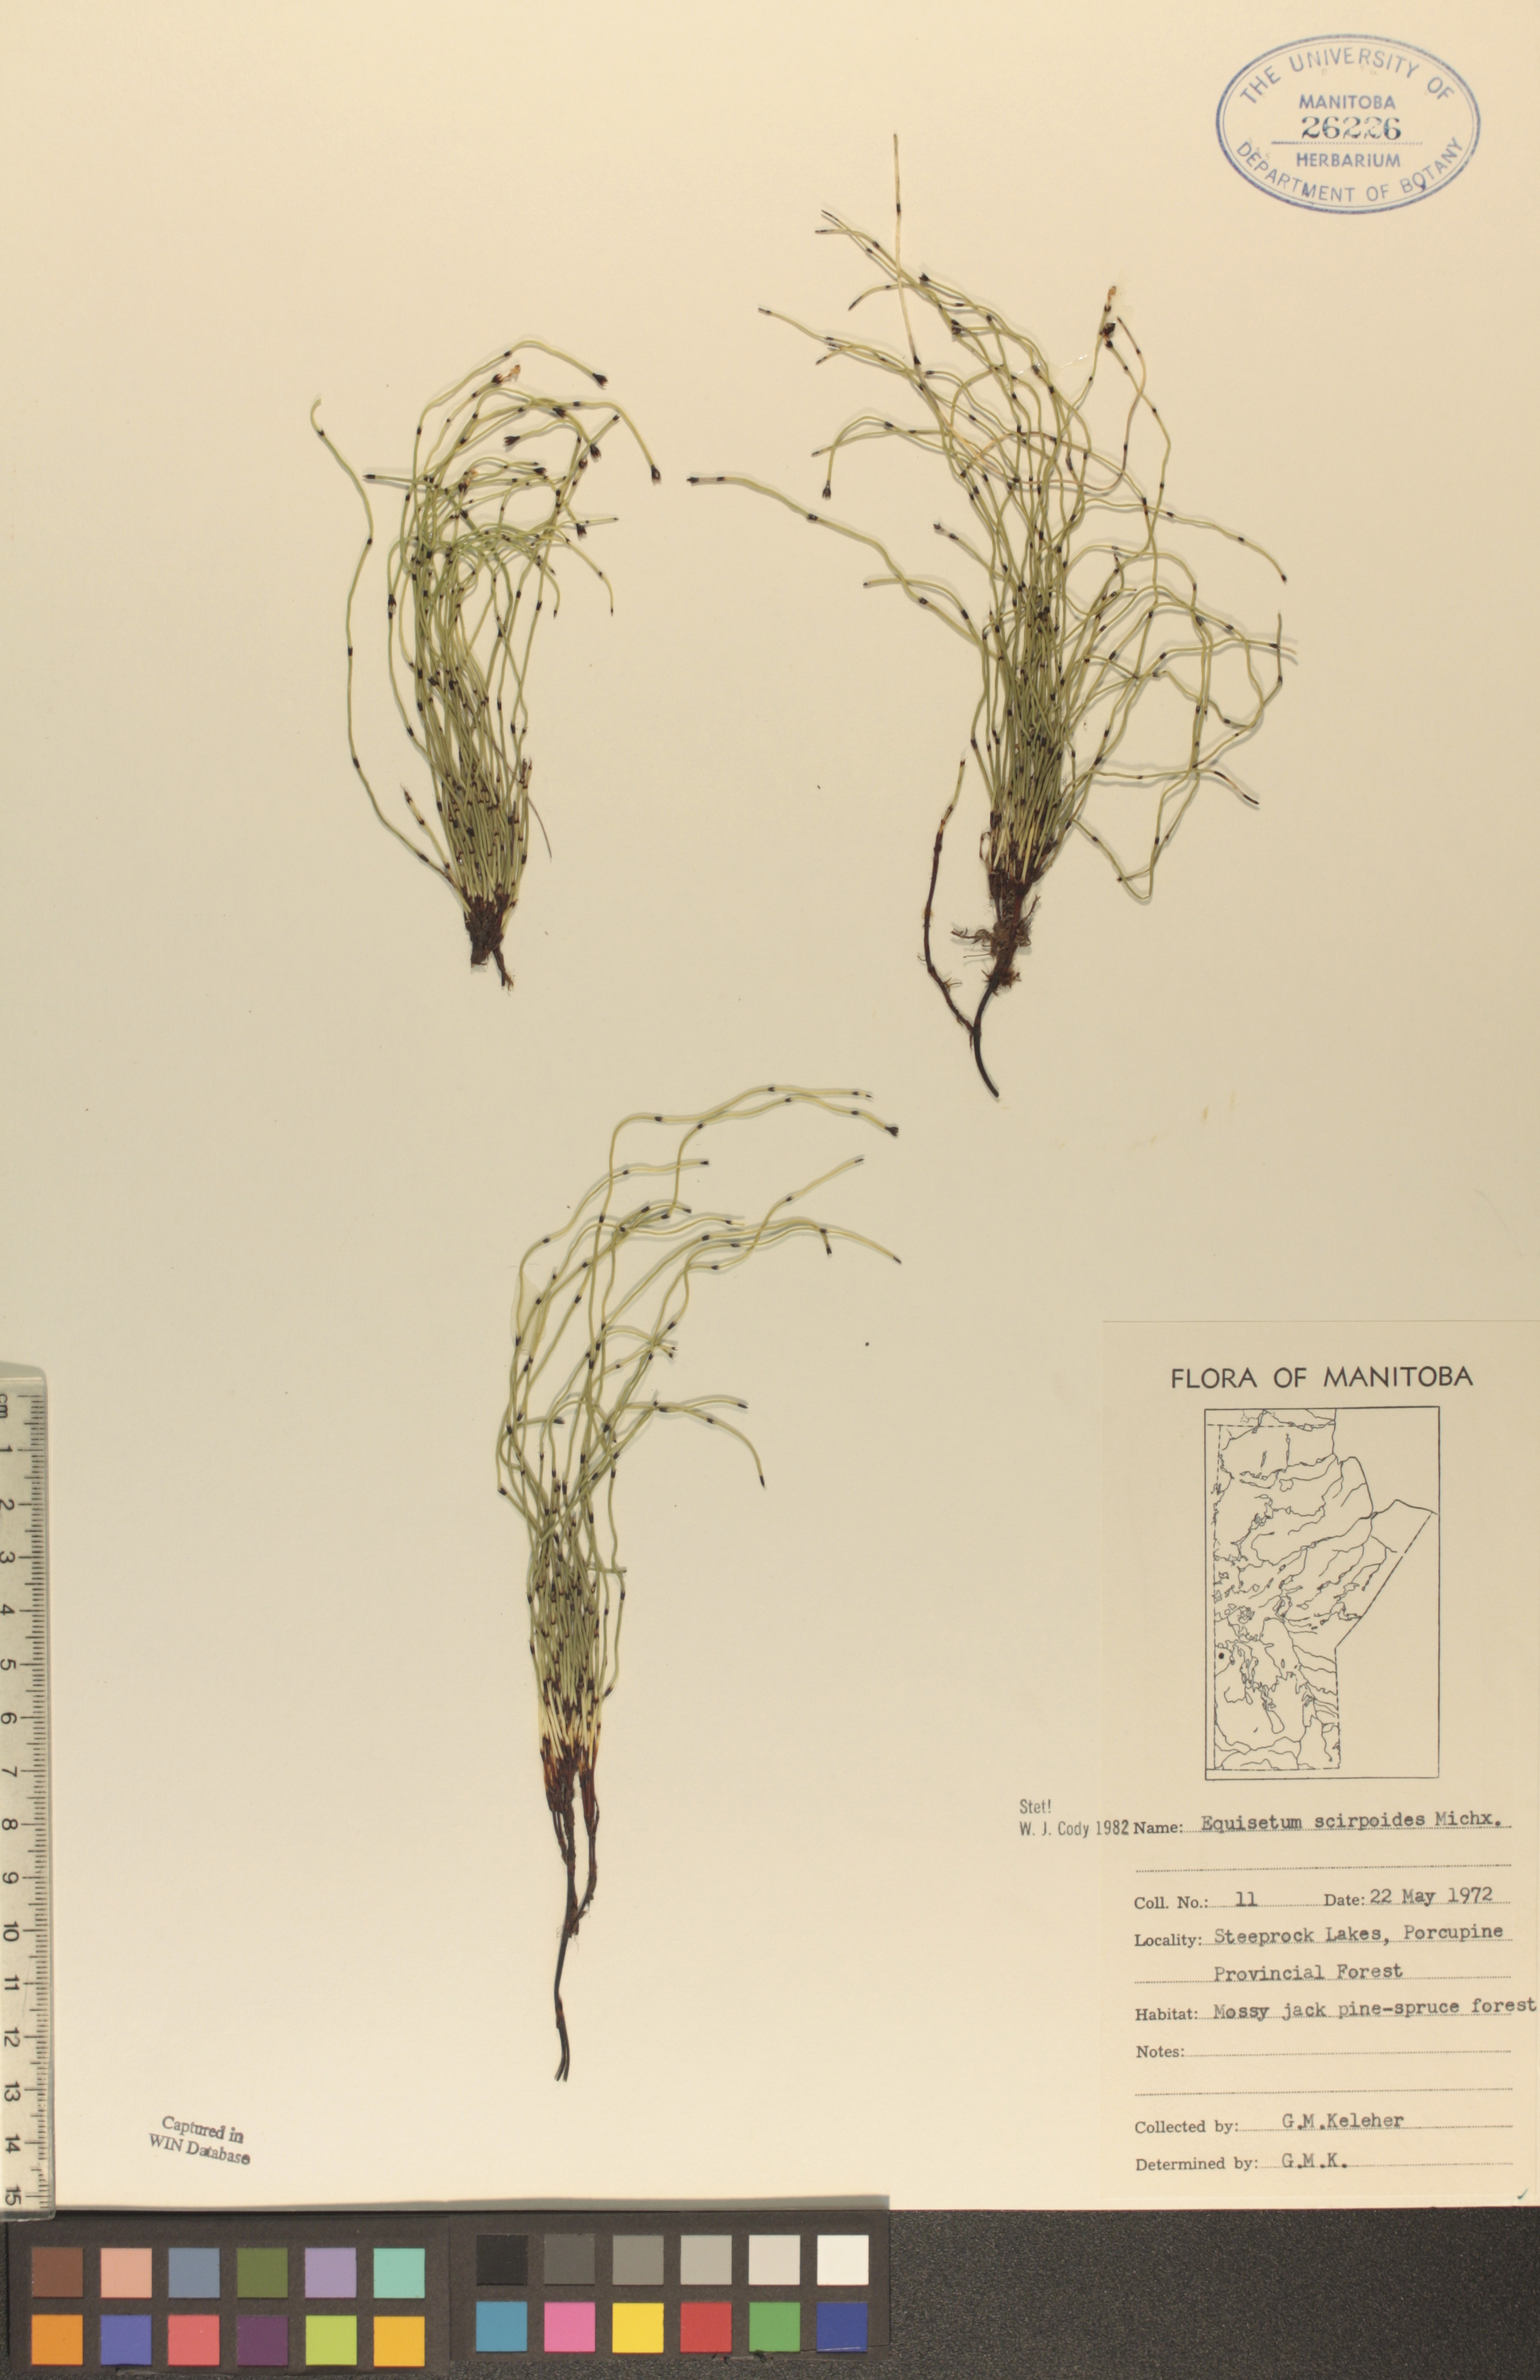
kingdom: Plantae
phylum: Tracheophyta
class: Polypodiopsida
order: Equisetales
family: Equisetaceae
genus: Equisetum
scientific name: Equisetum scirpoides
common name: Delicate horsetail
